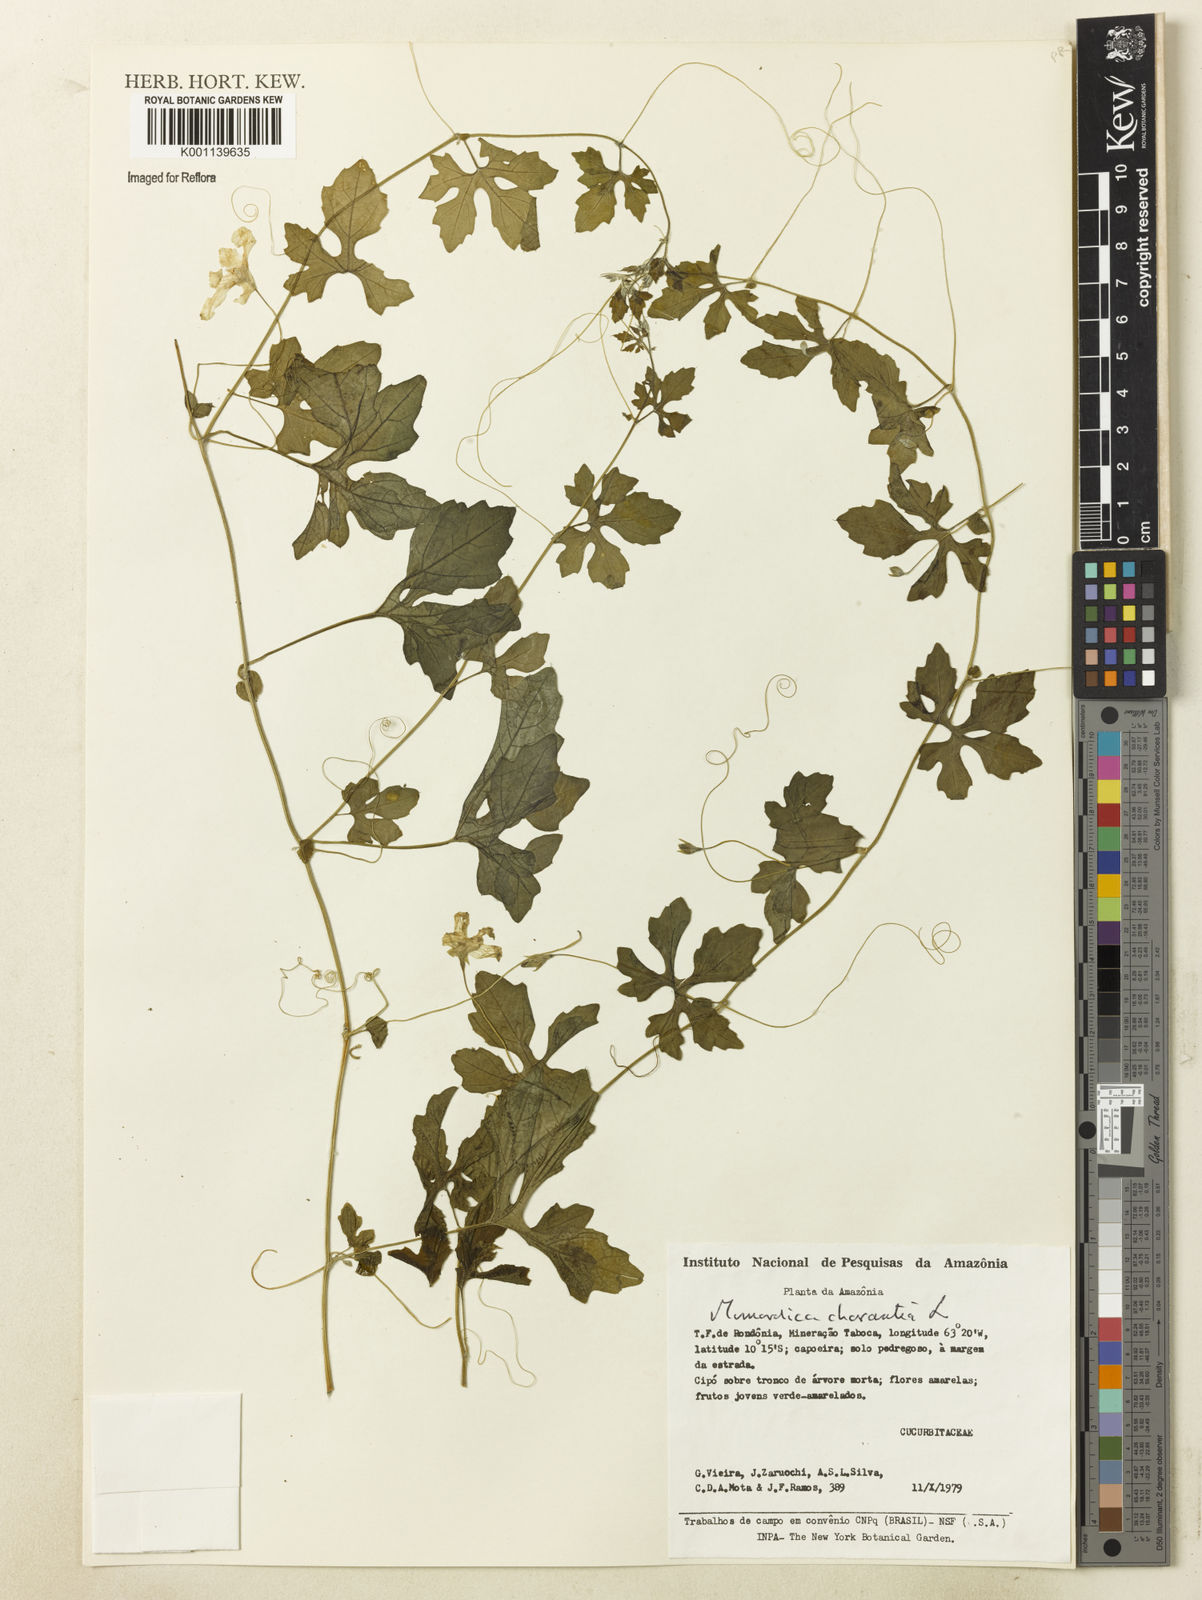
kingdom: Plantae
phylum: Tracheophyta
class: Magnoliopsida
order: Cucurbitales
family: Cucurbitaceae
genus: Momordica
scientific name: Momordica charantia
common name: Balsampear
